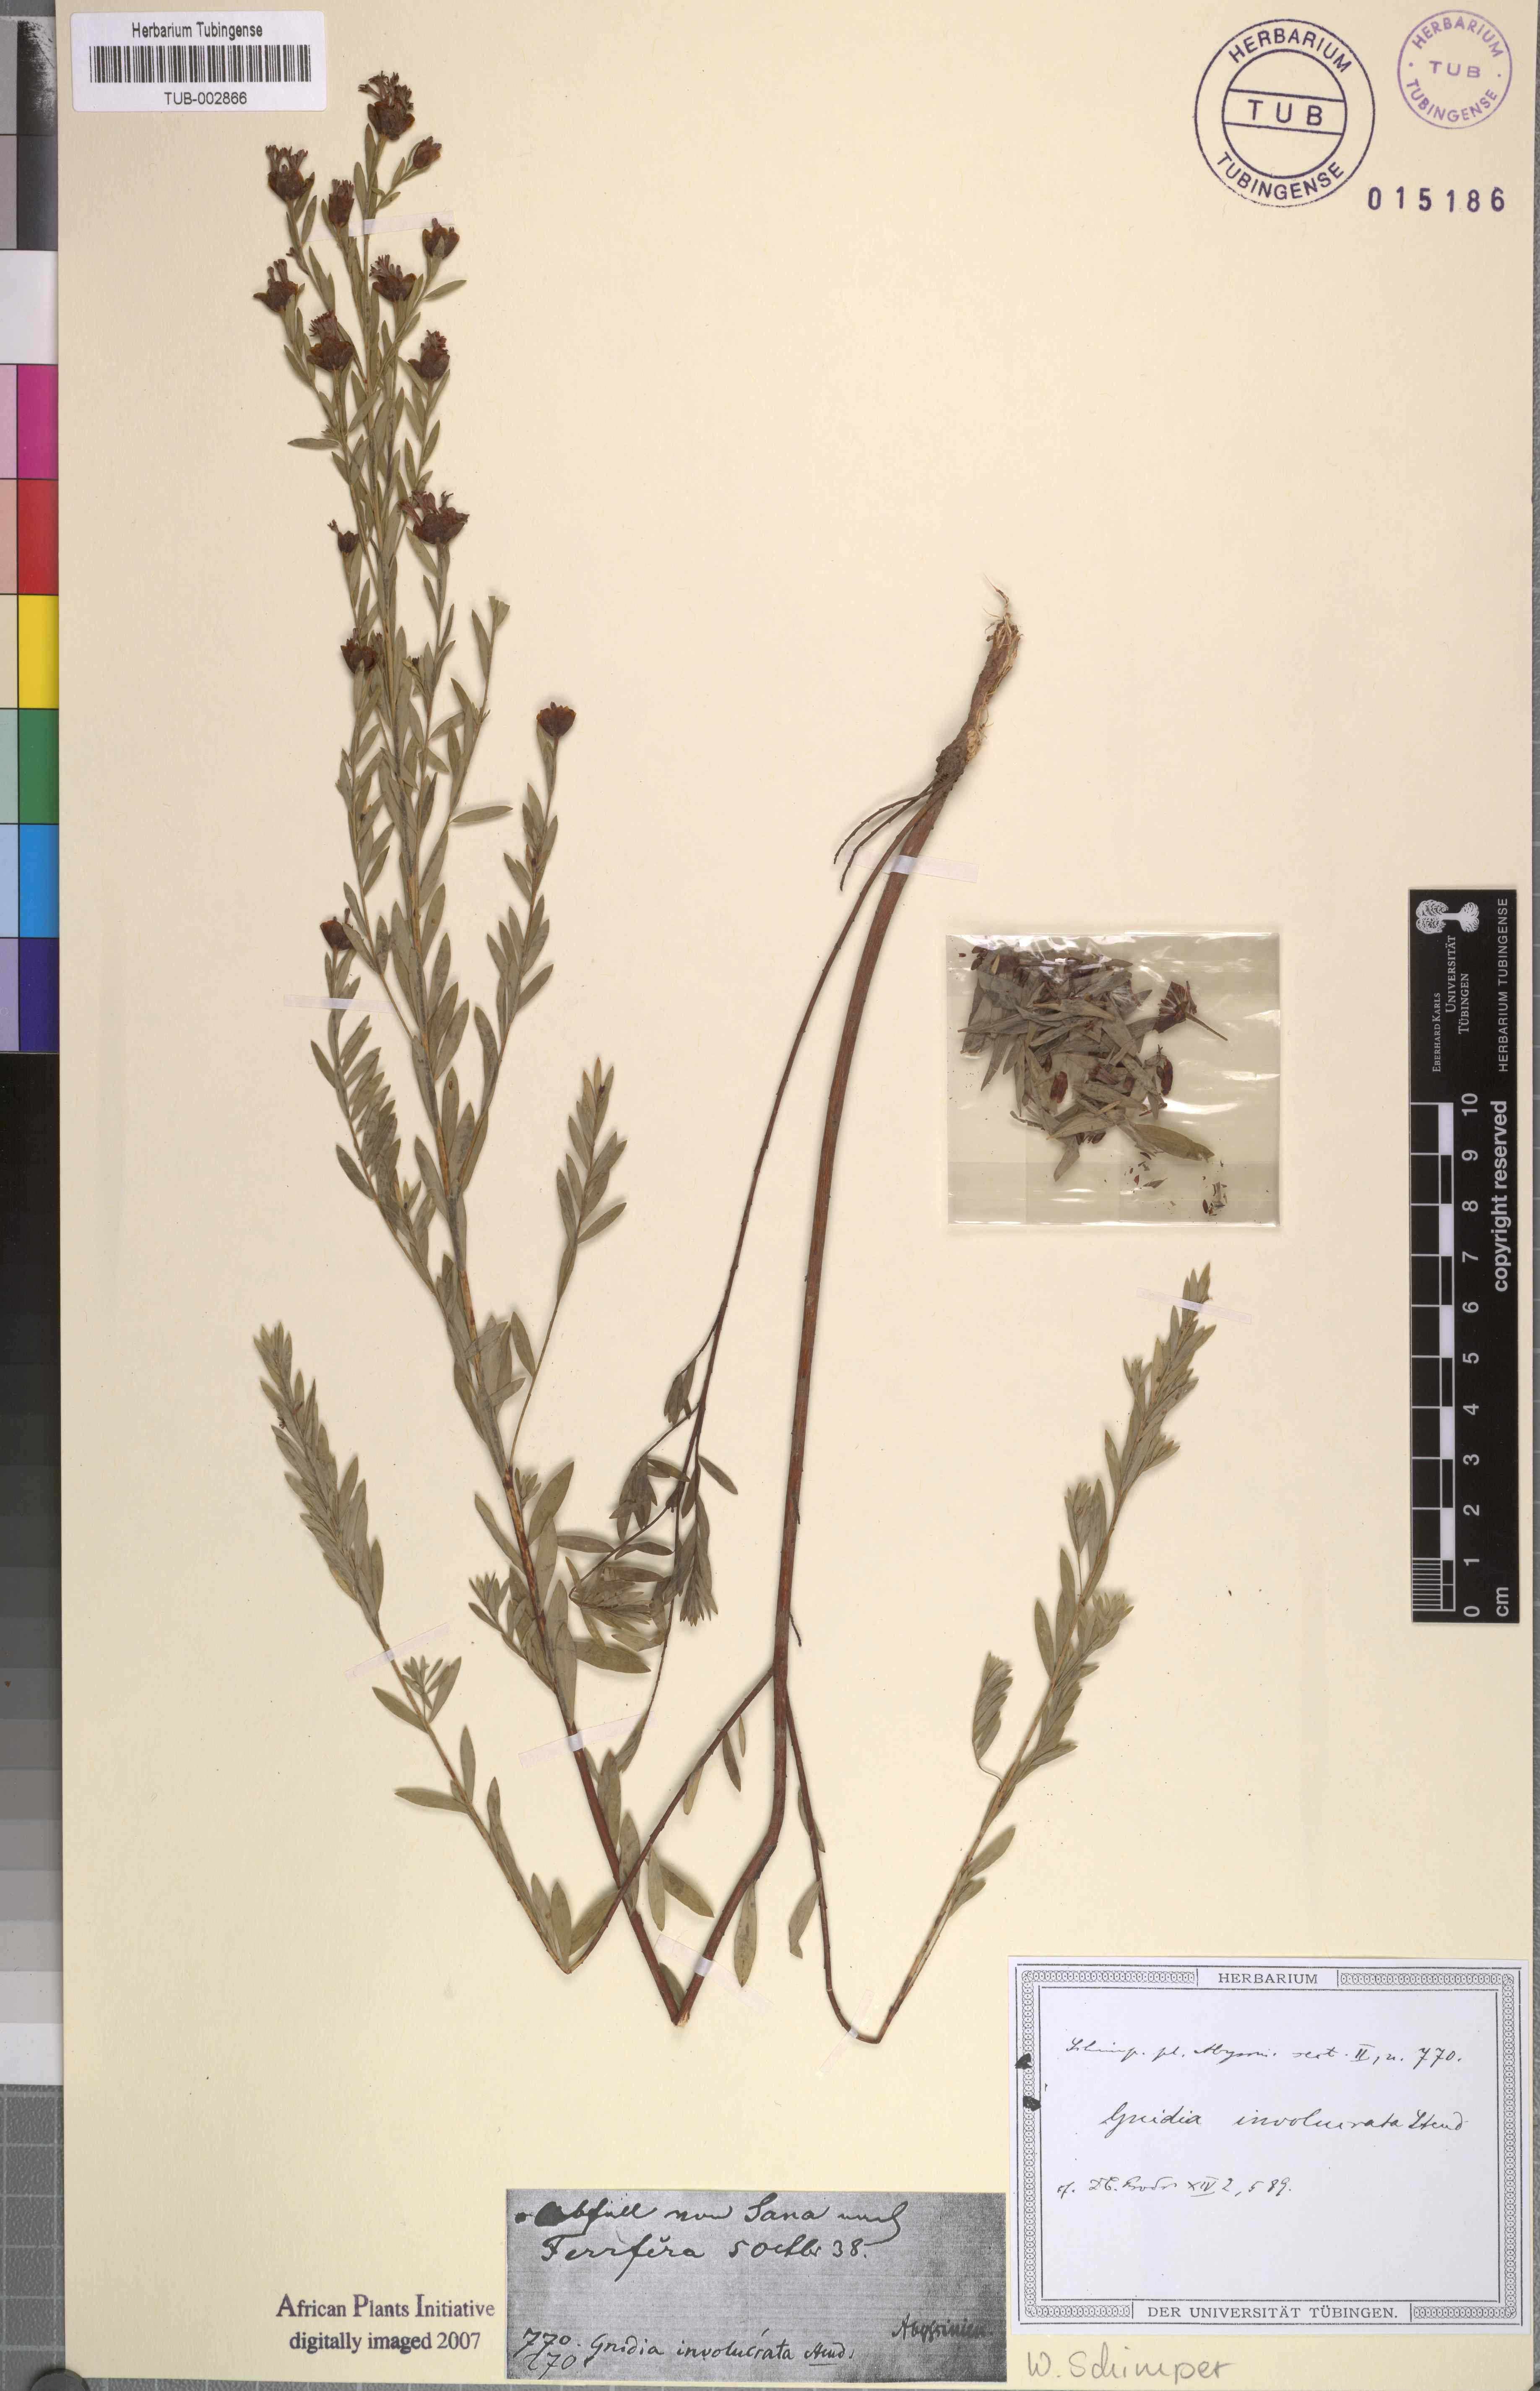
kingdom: Plantae
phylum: Tracheophyta
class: Magnoliopsida
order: Malvales
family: Thymelaeaceae
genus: Gnidia
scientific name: Gnidia involucrata
